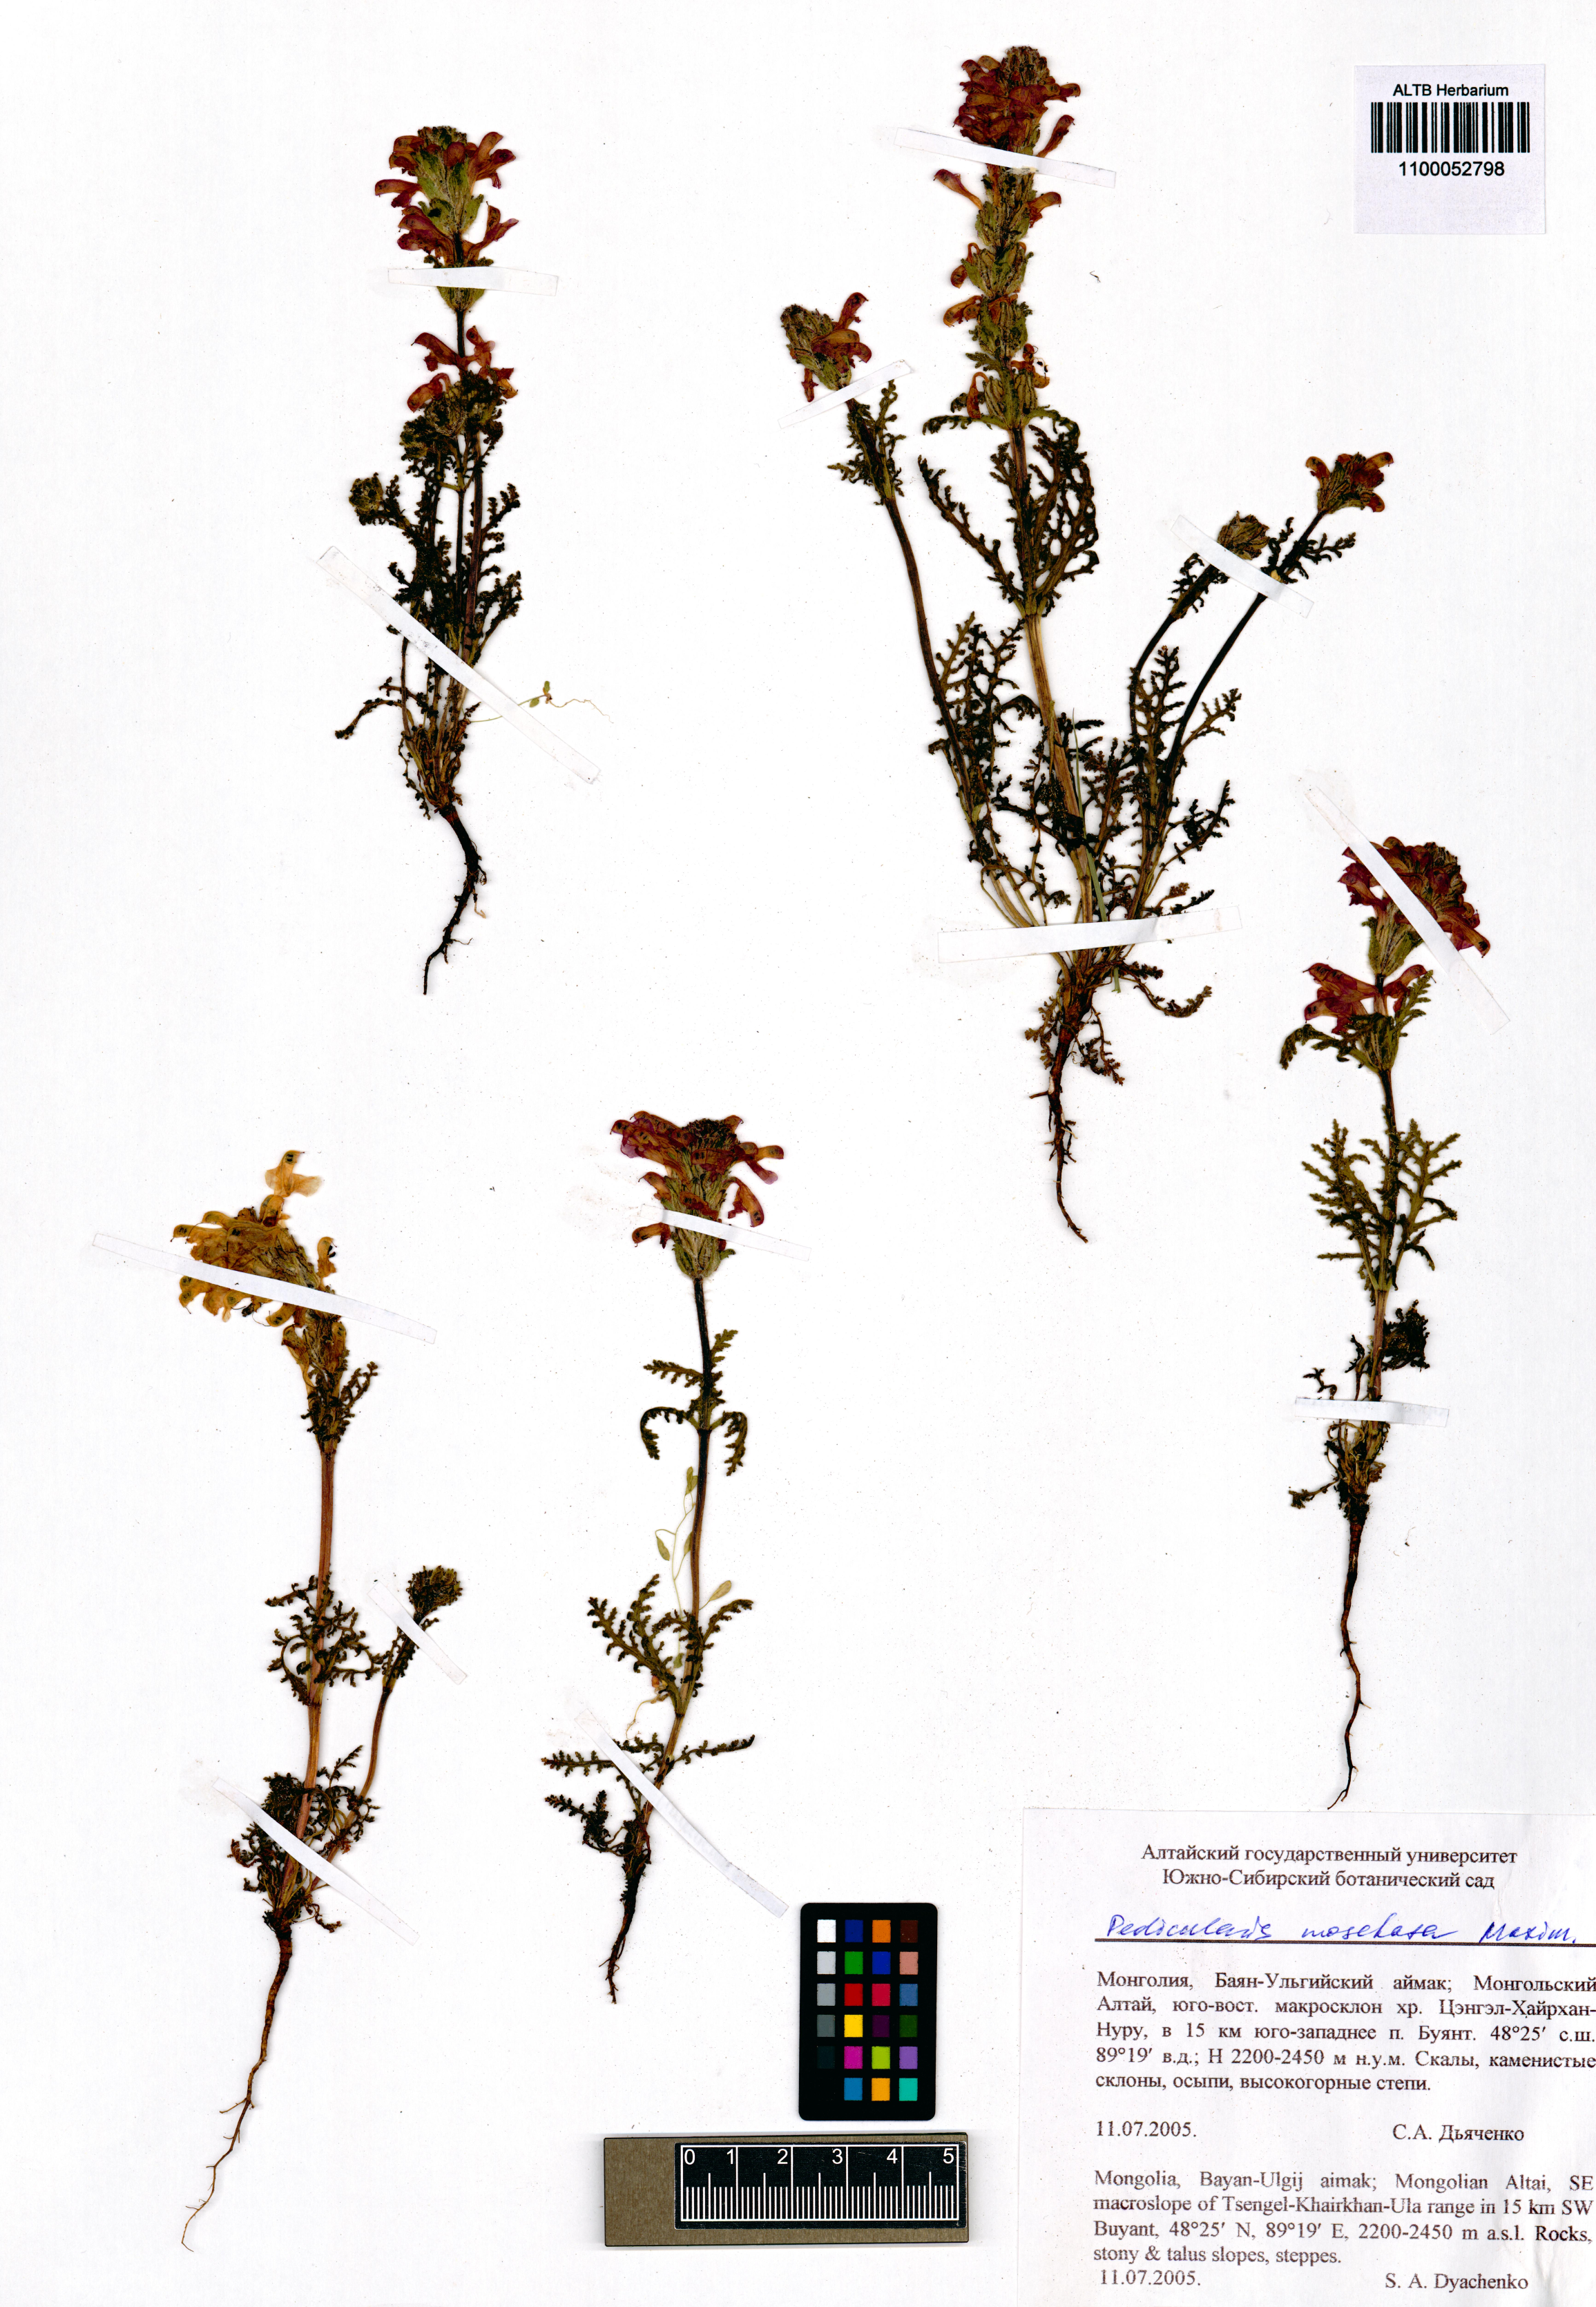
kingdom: Plantae
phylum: Tracheophyta
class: Magnoliopsida
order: Lamiales
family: Orobanchaceae
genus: Pedicularis
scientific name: Pedicularis moschata
